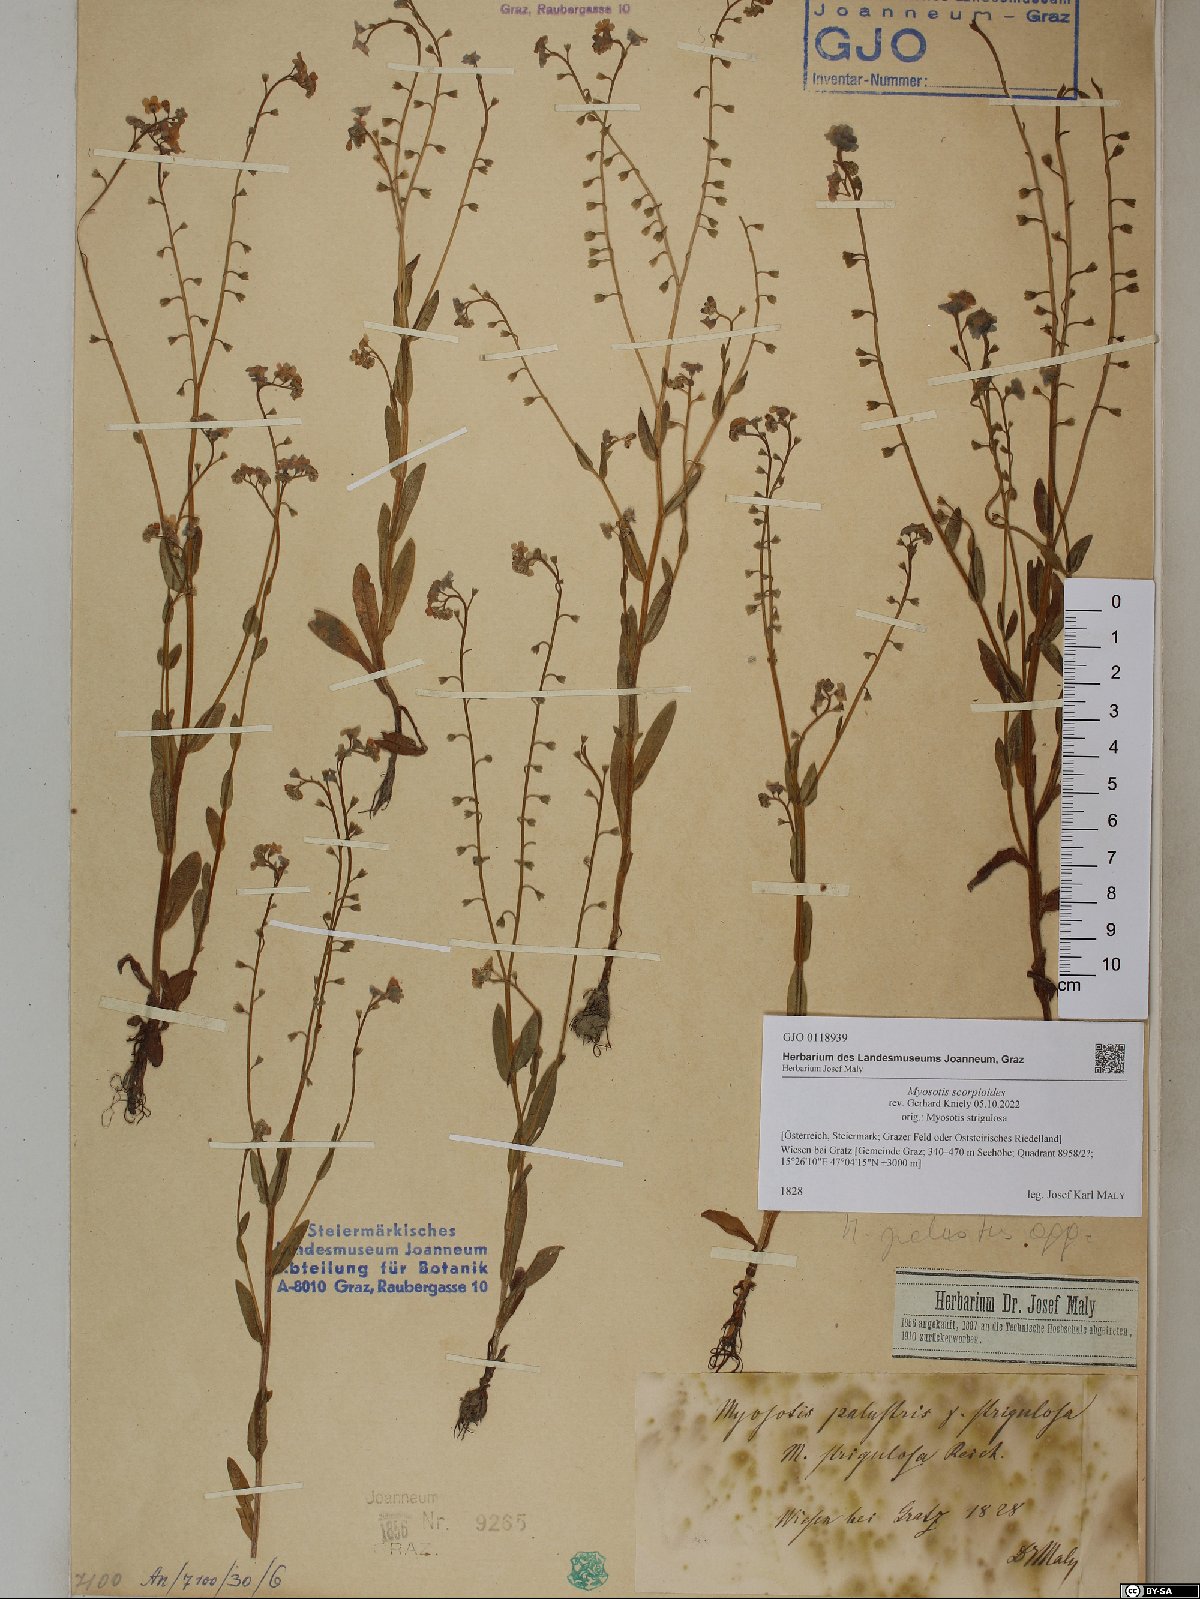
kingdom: Plantae
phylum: Tracheophyta
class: Magnoliopsida
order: Boraginales
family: Boraginaceae
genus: Myosotis
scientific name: Myosotis scorpioides
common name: Water forget-me-not
